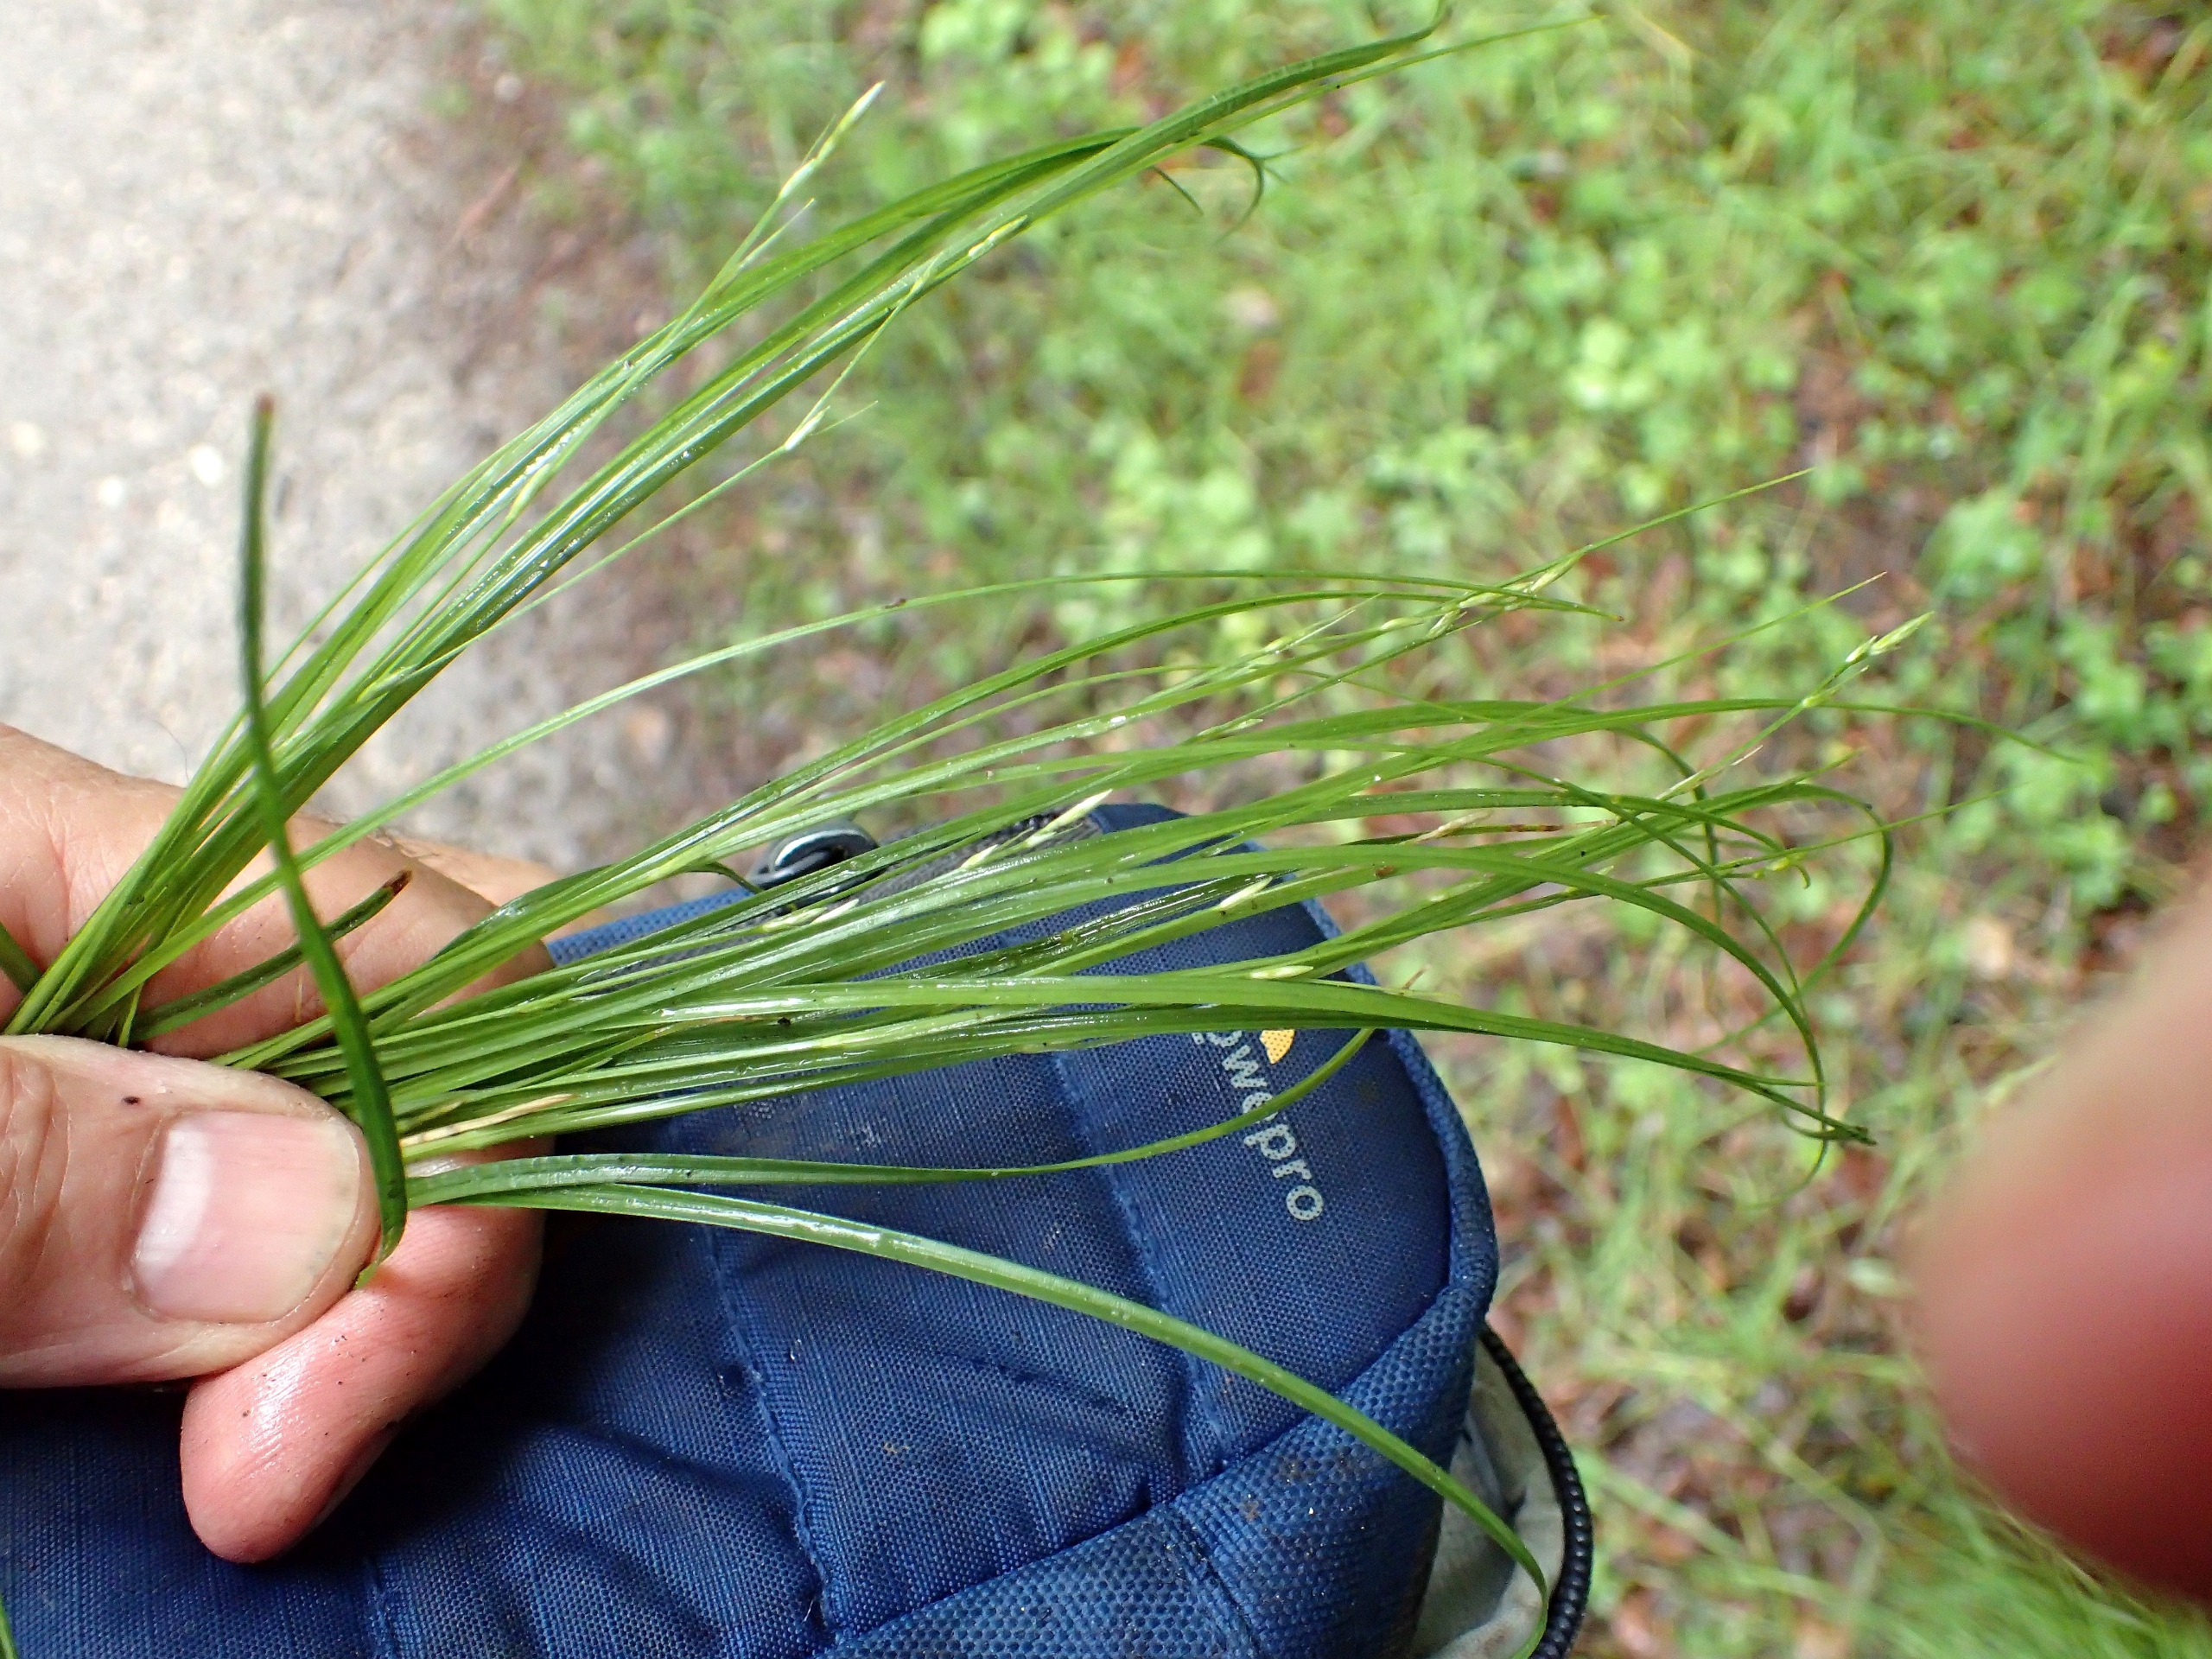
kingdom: Plantae
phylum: Tracheophyta
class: Liliopsida
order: Poales
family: Cyperaceae
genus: Carex
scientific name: Carex remota
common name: Akselblomstret star
